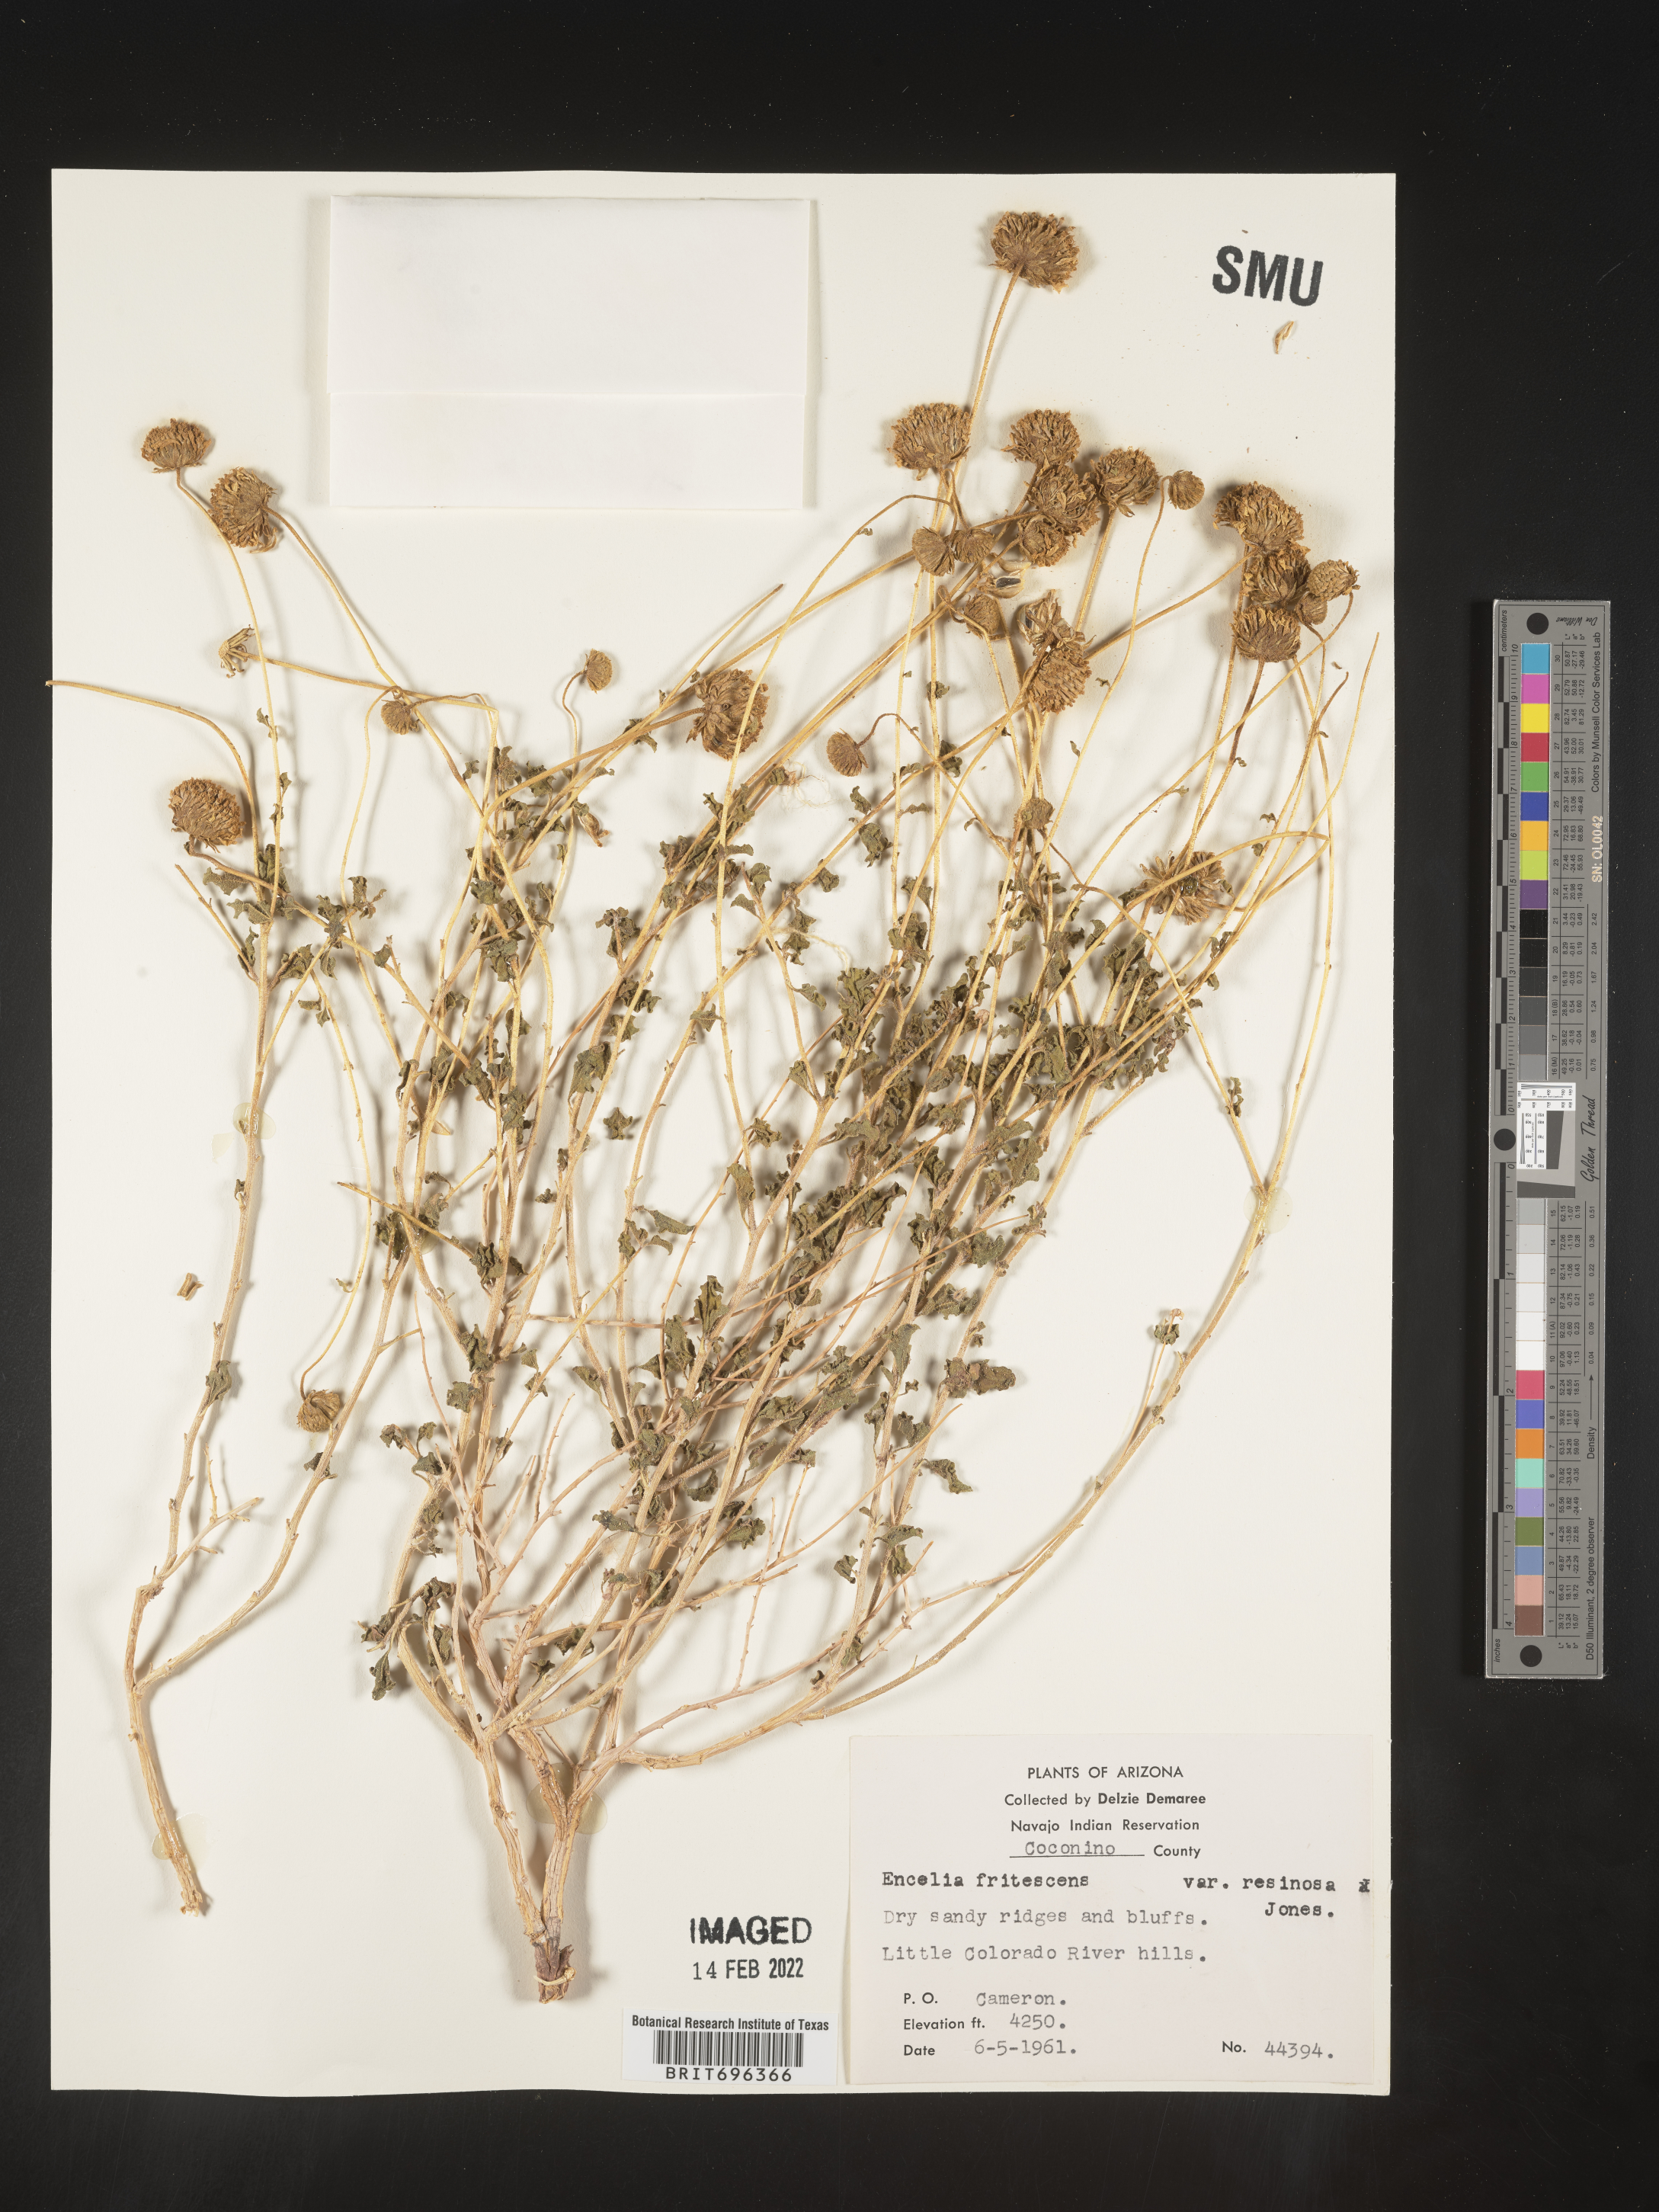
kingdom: Plantae
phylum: Tracheophyta
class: Magnoliopsida
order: Asterales
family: Asteraceae
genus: Encelia
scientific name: Encelia frutescens
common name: Bush encelia
